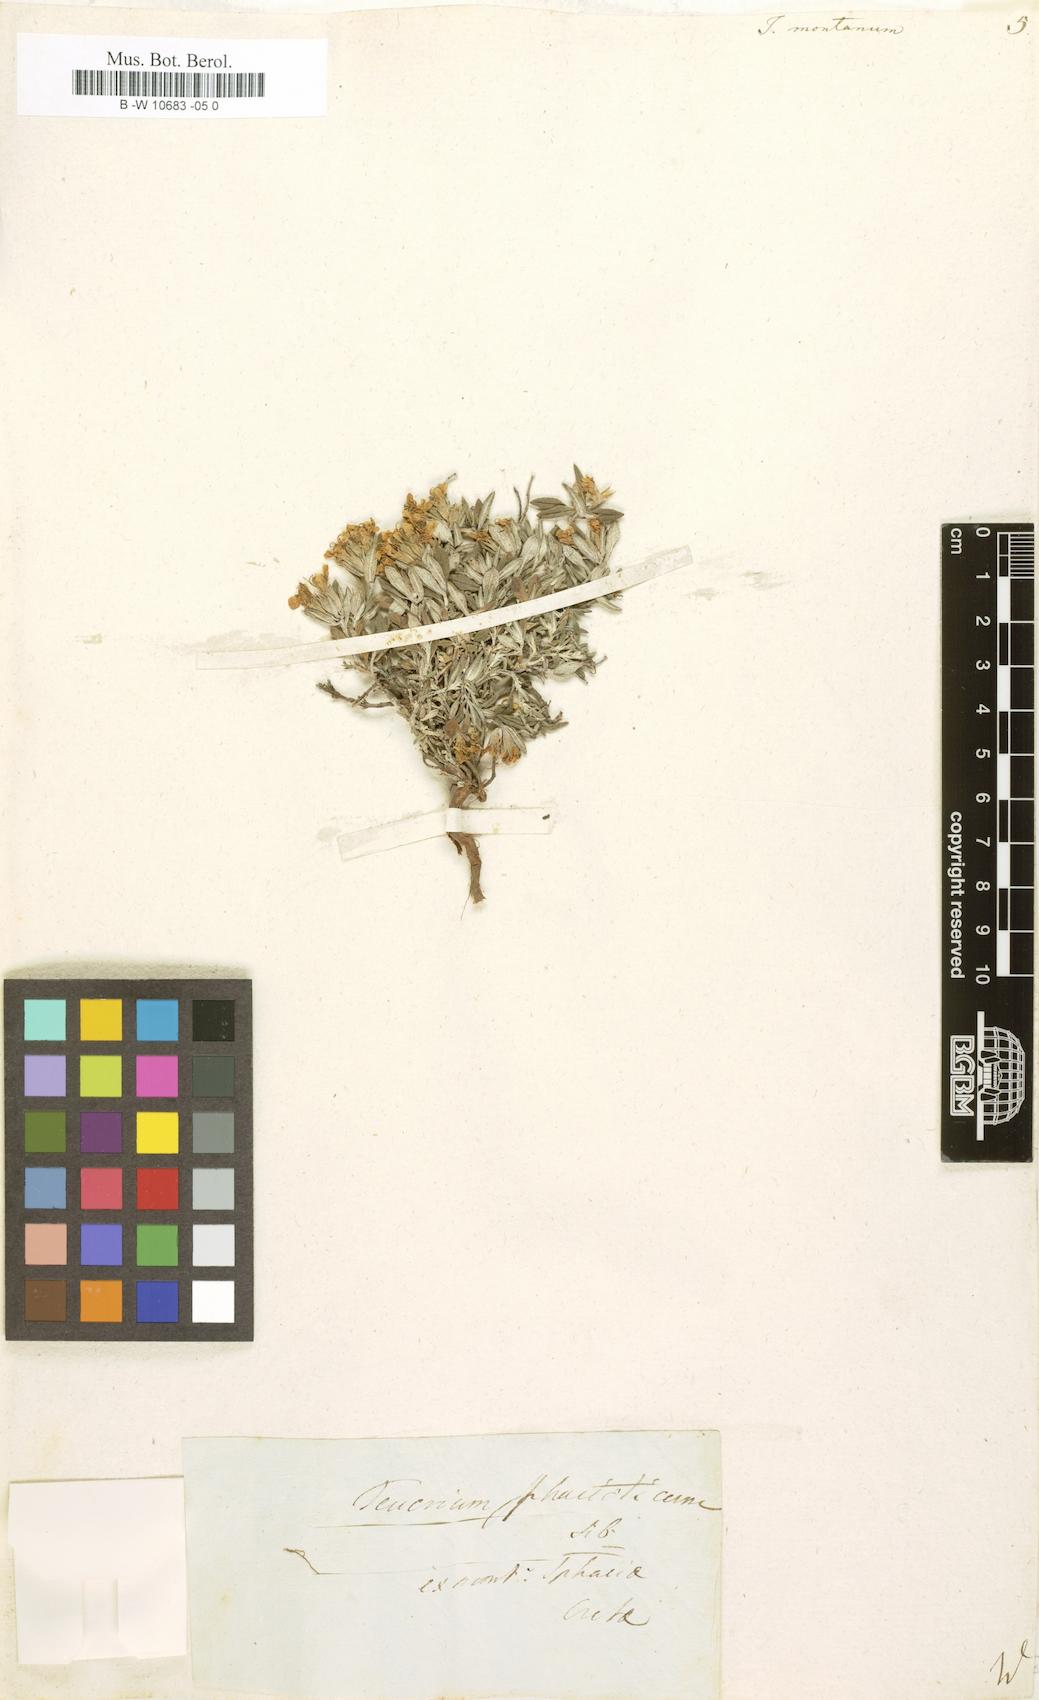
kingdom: Plantae
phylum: Tracheophyta
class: Magnoliopsida
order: Lamiales
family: Lamiaceae
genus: Teucrium
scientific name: Teucrium montanum
